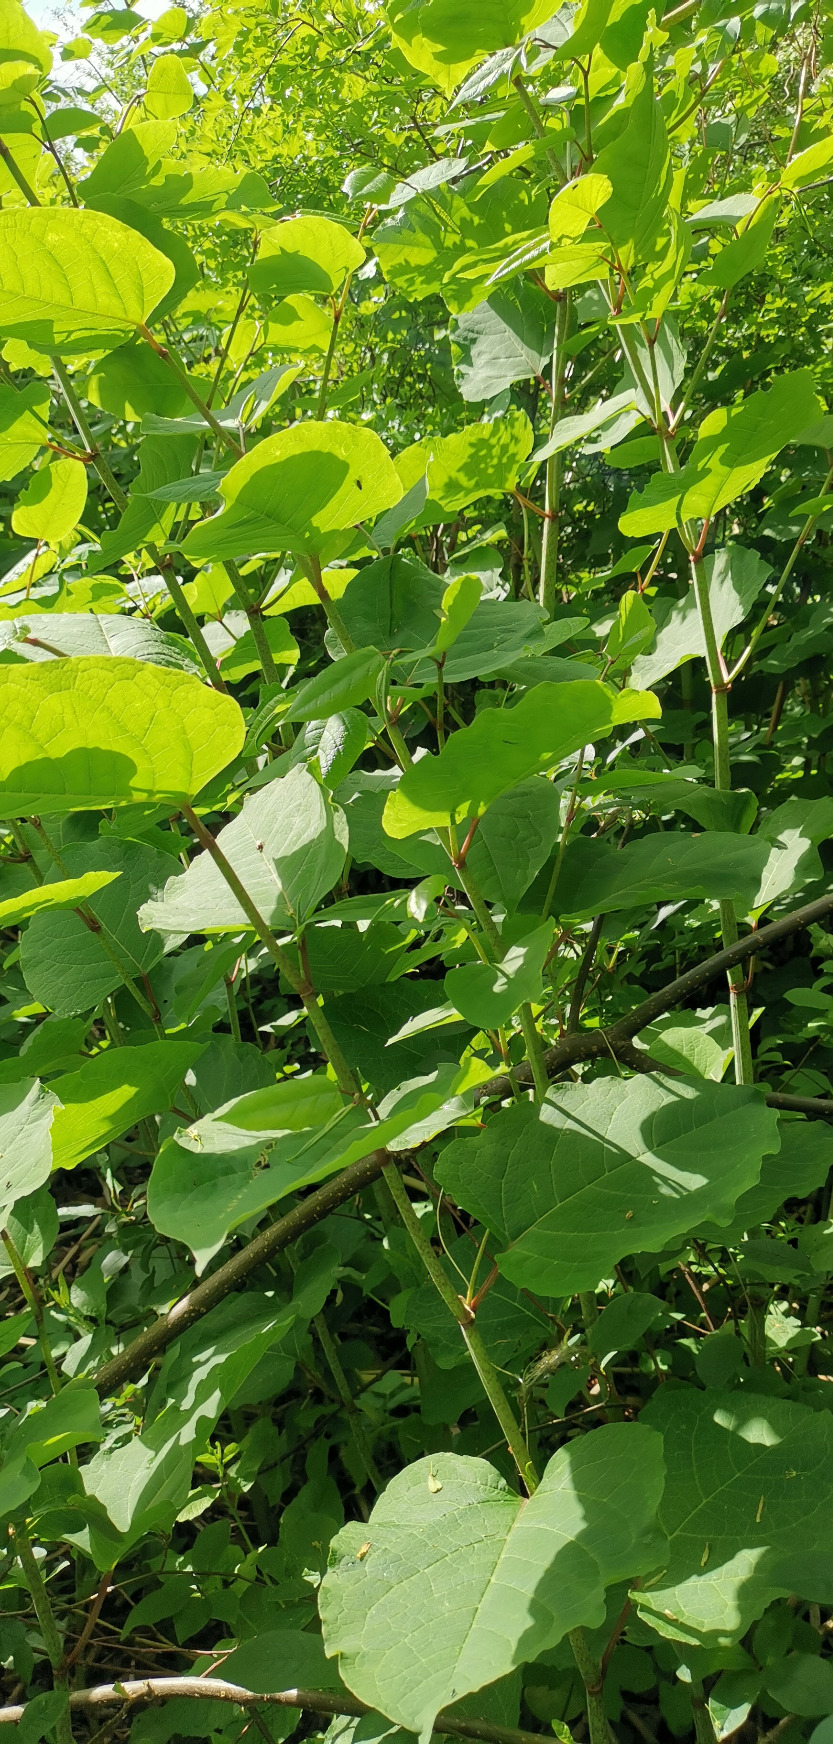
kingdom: Plantae
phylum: Tracheophyta
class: Magnoliopsida
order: Caryophyllales
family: Polygonaceae
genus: Reynoutria
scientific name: Reynoutria bohemica
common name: Hybrid-pileurt
